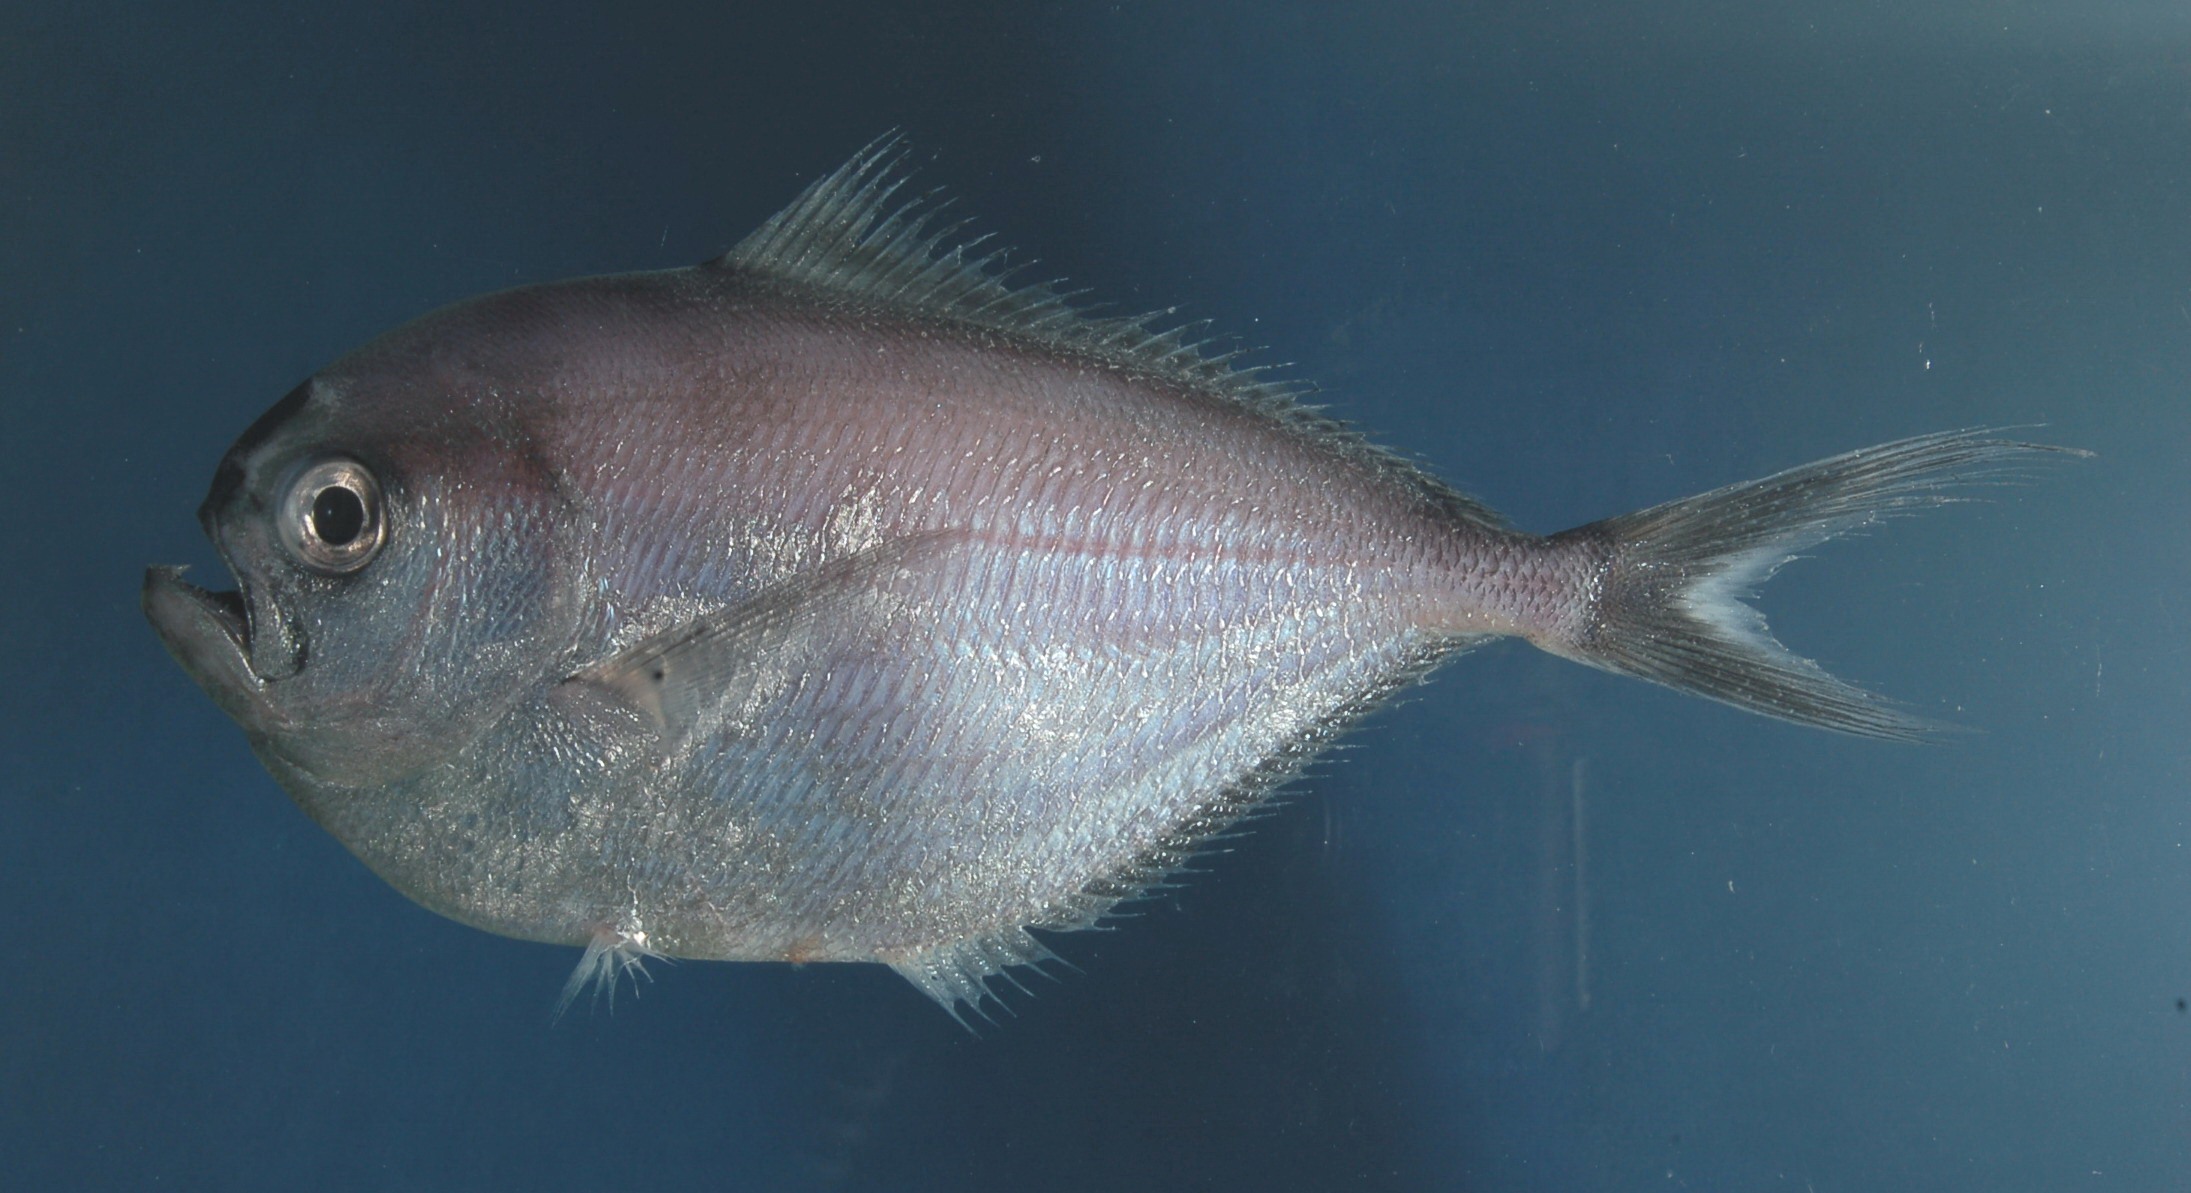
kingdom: Animalia
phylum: Chordata
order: Perciformes
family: Bramidae
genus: Brama
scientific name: Brama orcini
